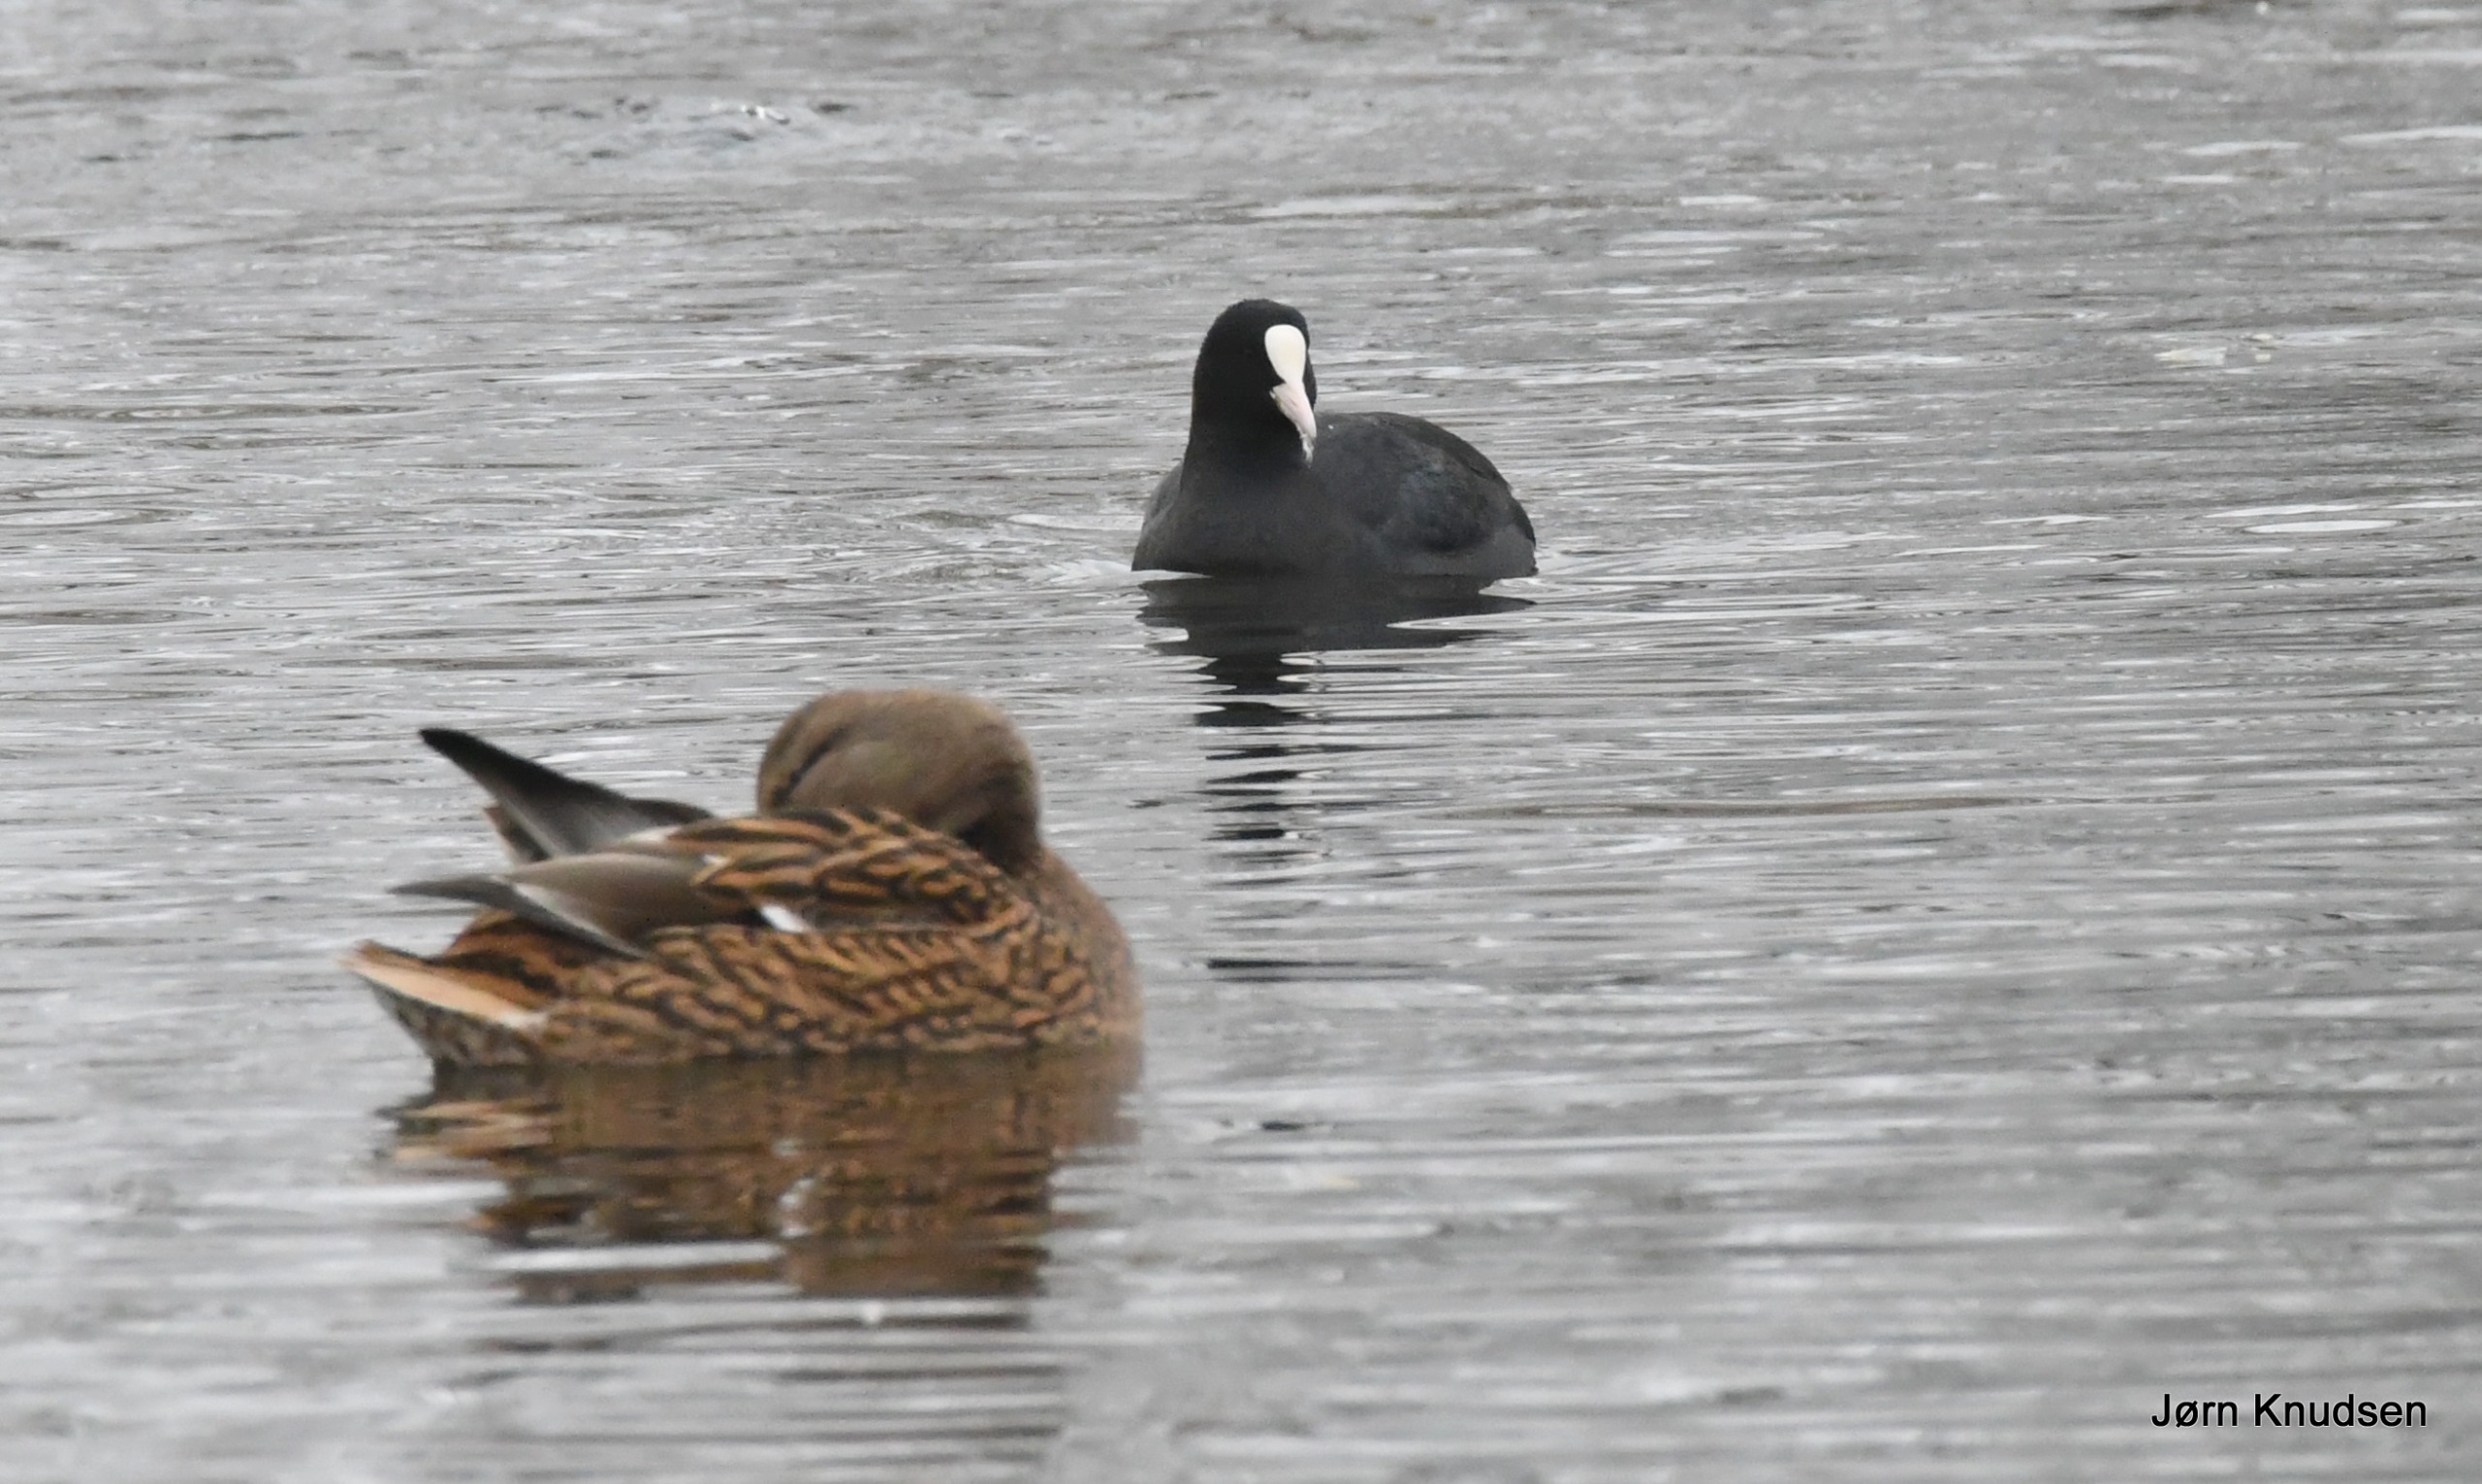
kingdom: Animalia
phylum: Chordata
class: Aves
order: Gruiformes
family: Rallidae
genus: Fulica
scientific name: Fulica atra
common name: Blishøne
